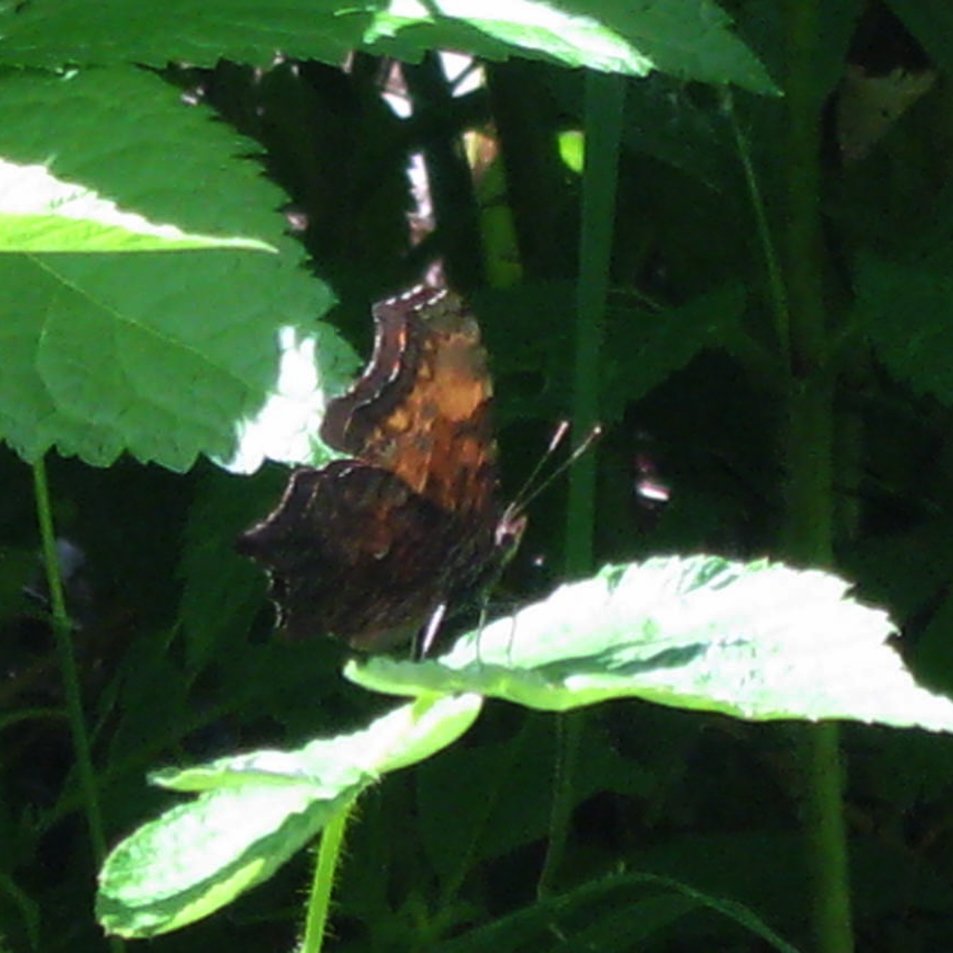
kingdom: Animalia
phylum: Arthropoda
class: Insecta
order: Lepidoptera
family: Nymphalidae
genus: Polygonia
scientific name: Polygonia comma
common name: Eastern Comma
